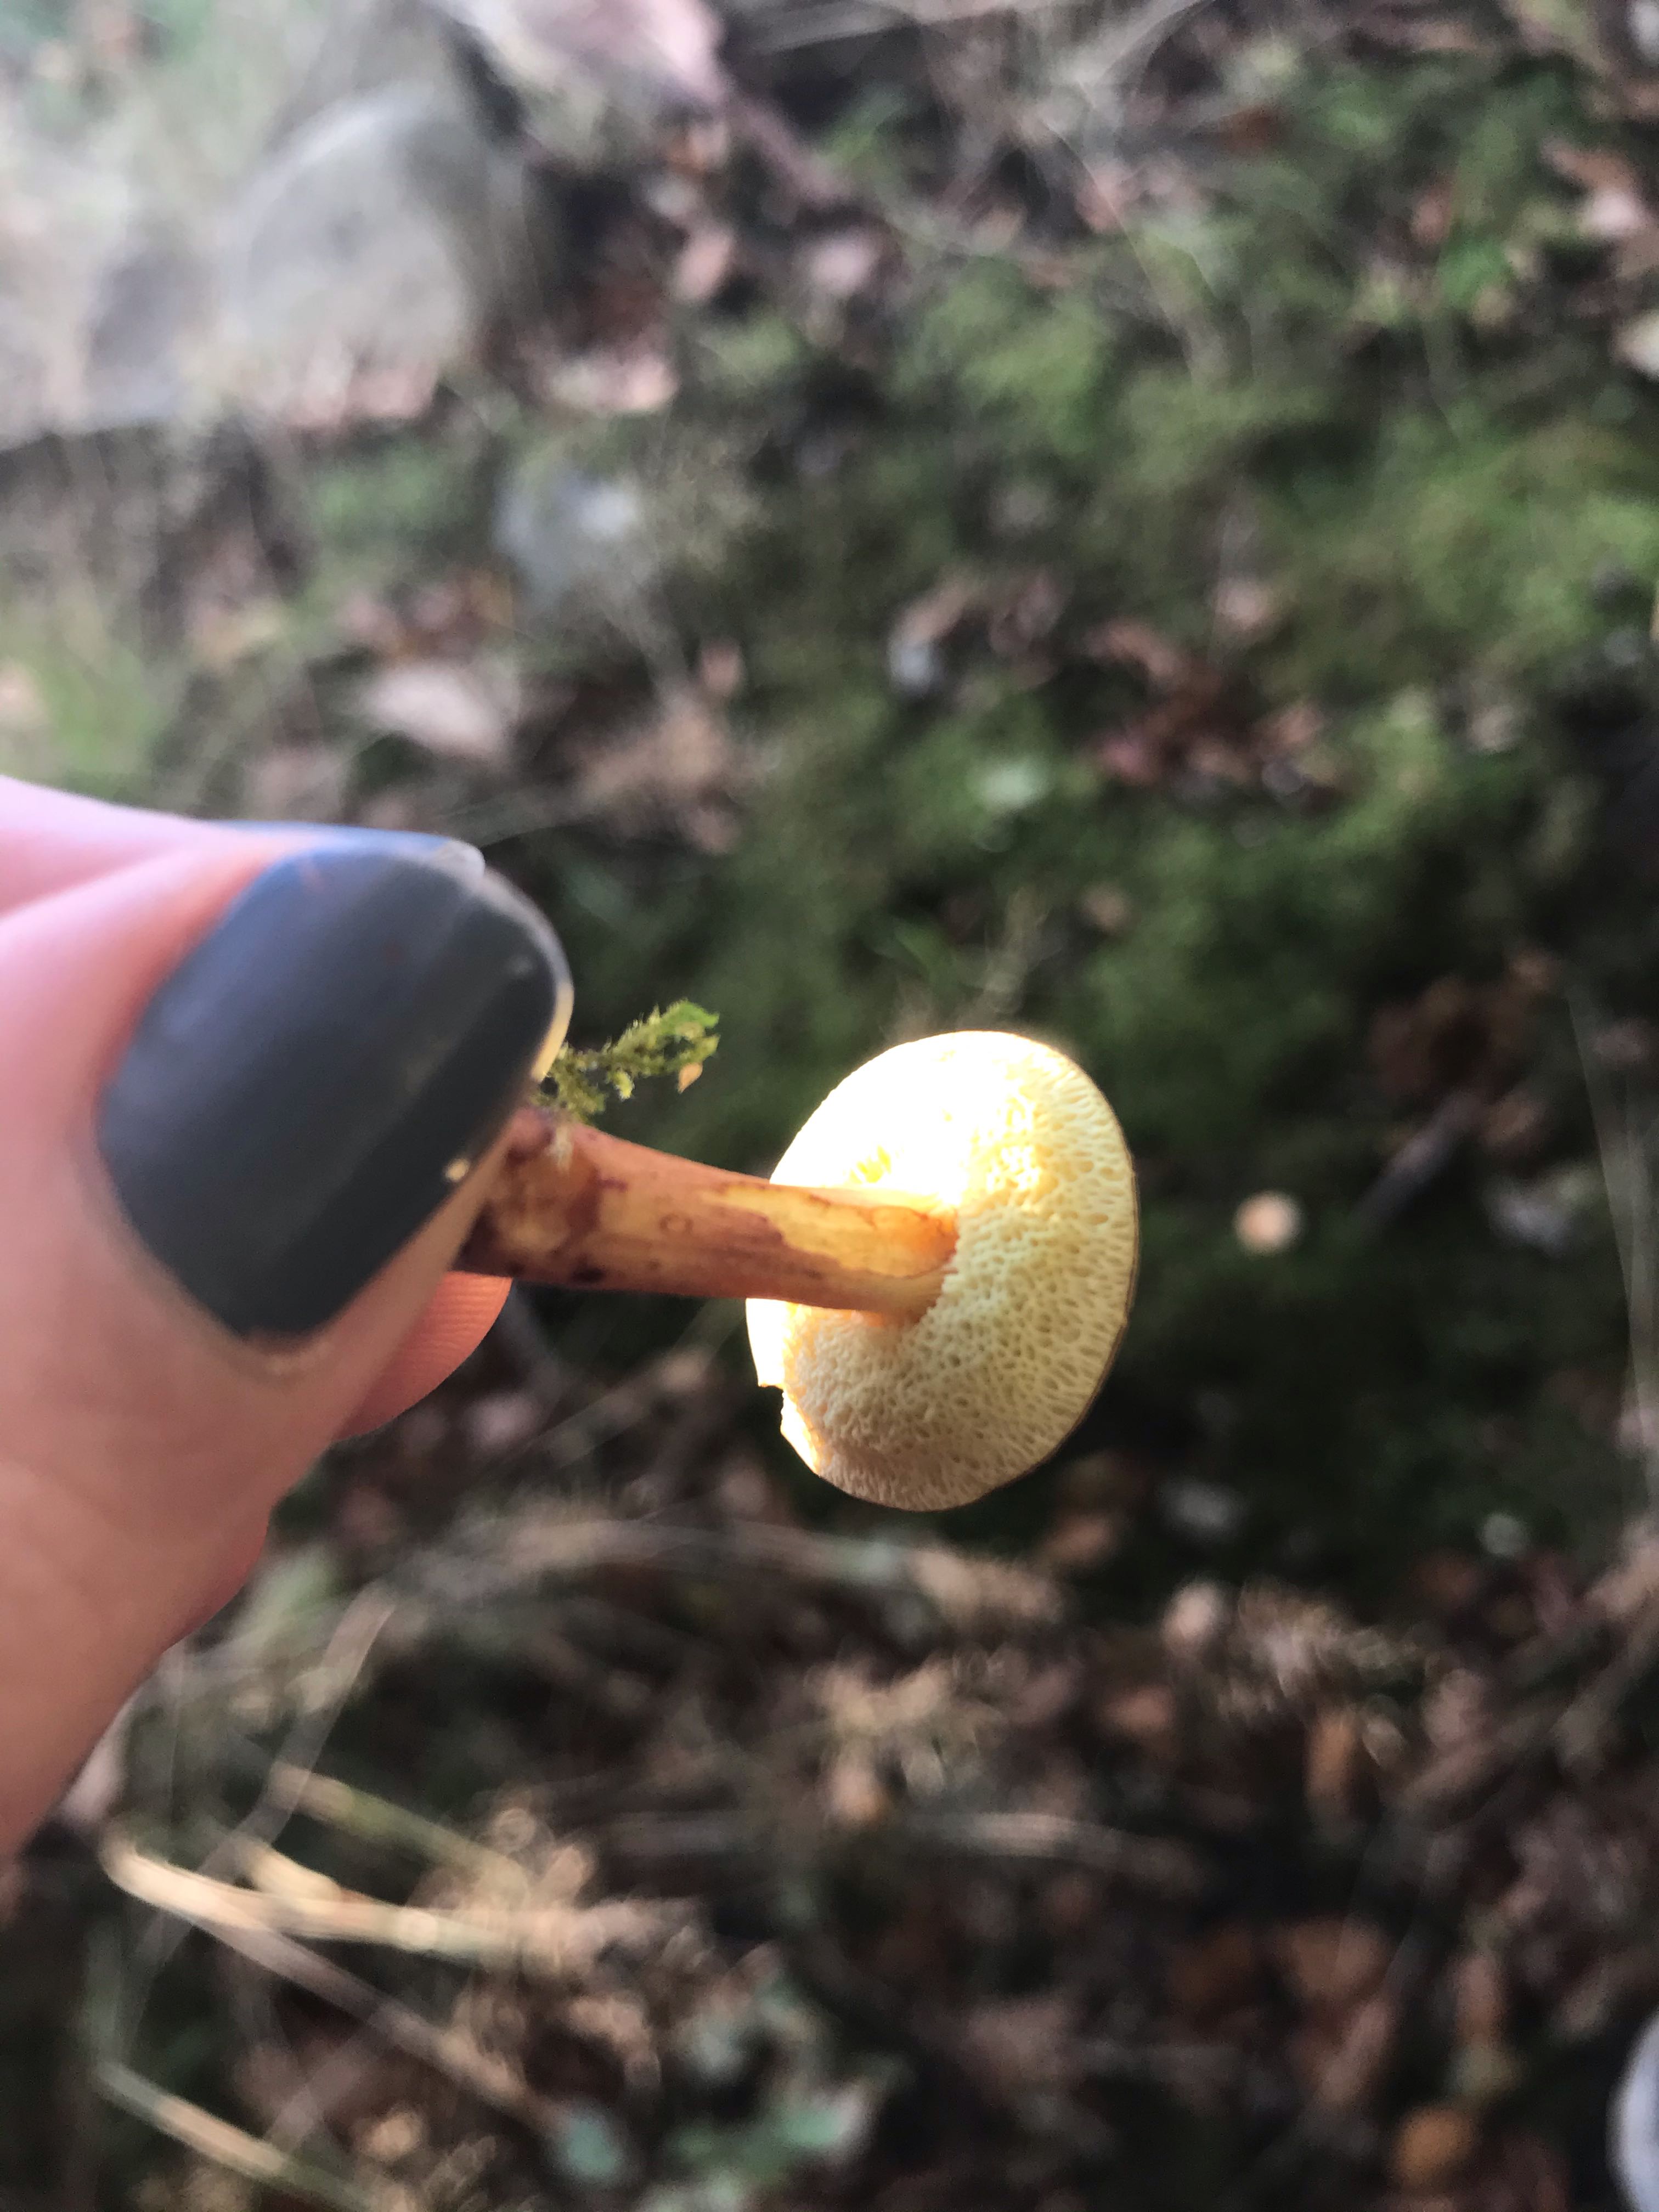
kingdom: Fungi
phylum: Basidiomycota
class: Agaricomycetes
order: Boletales
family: Boletaceae
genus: Xerocomellus
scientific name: Xerocomellus pruinatus
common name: dugget rørhat
